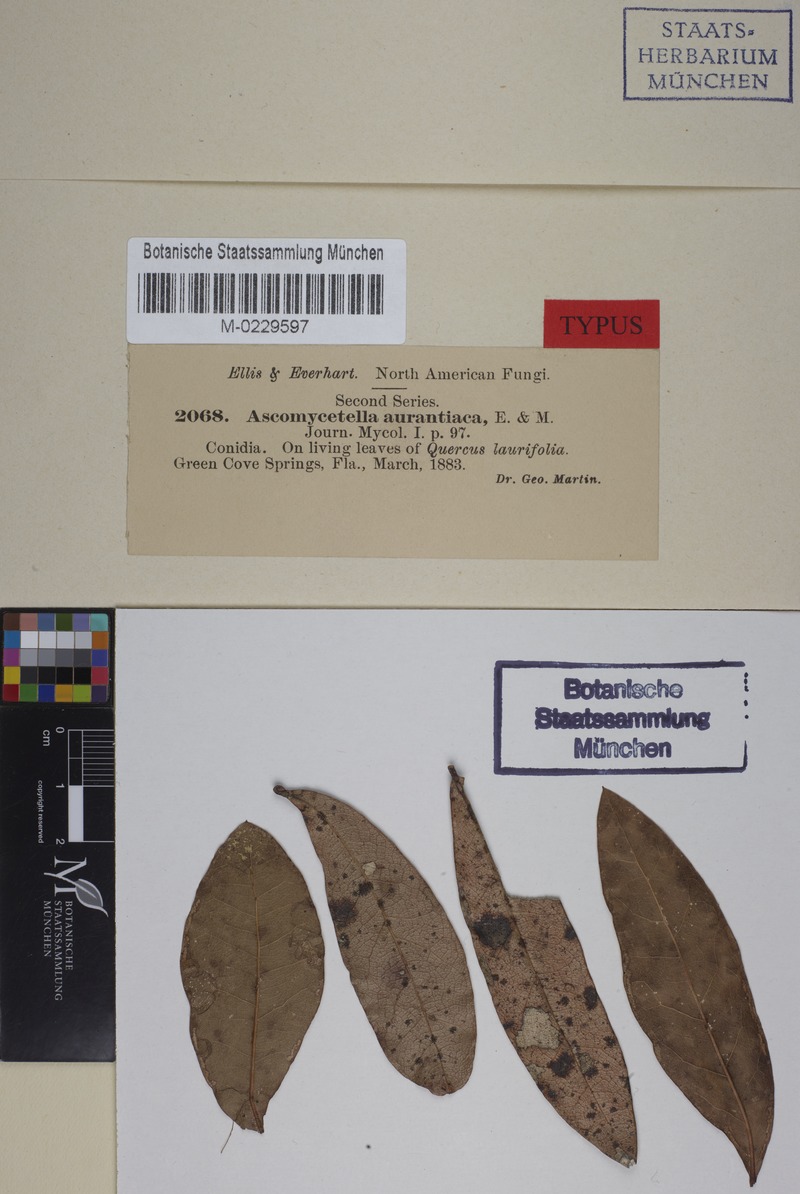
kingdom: Fungi
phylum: Ascomycota
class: Dothideomycetes
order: Capnodiales
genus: Ascomycetella
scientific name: Ascomycetella
